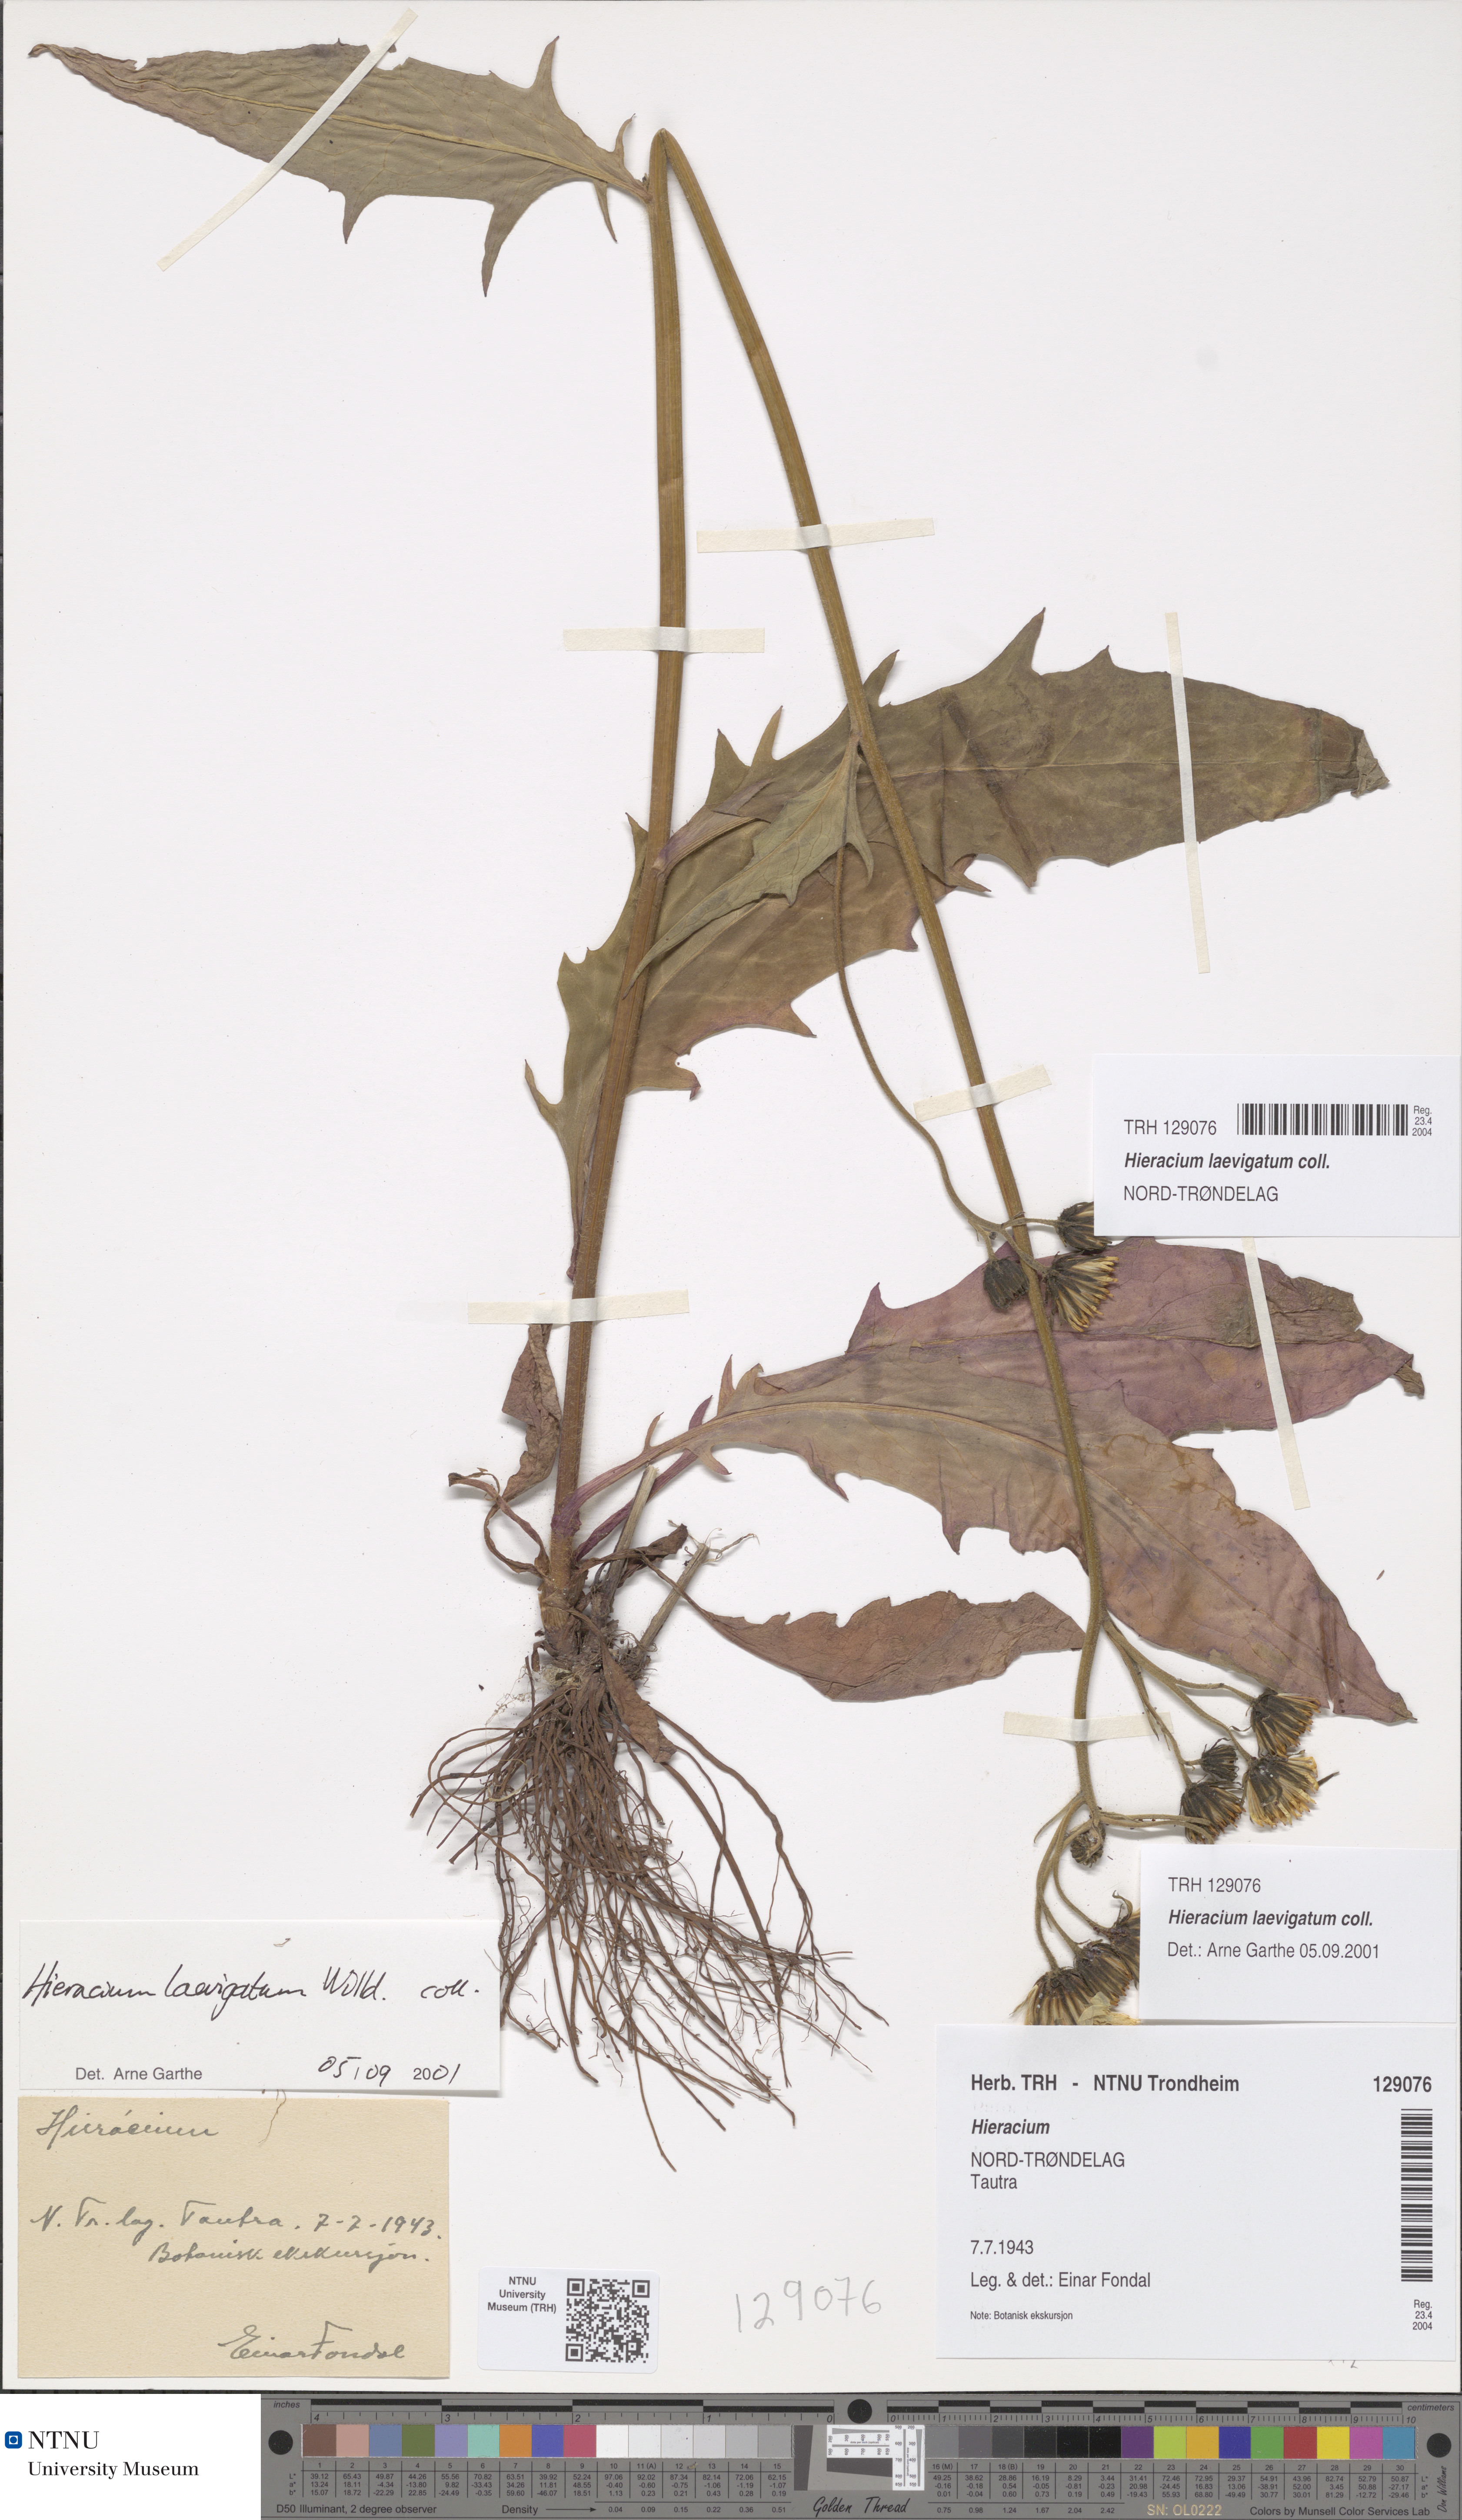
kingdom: Plantae
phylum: Tracheophyta
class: Magnoliopsida
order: Asterales
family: Asteraceae
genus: Hieracium
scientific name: Hieracium laevigatum
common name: Smooth hawkweed
